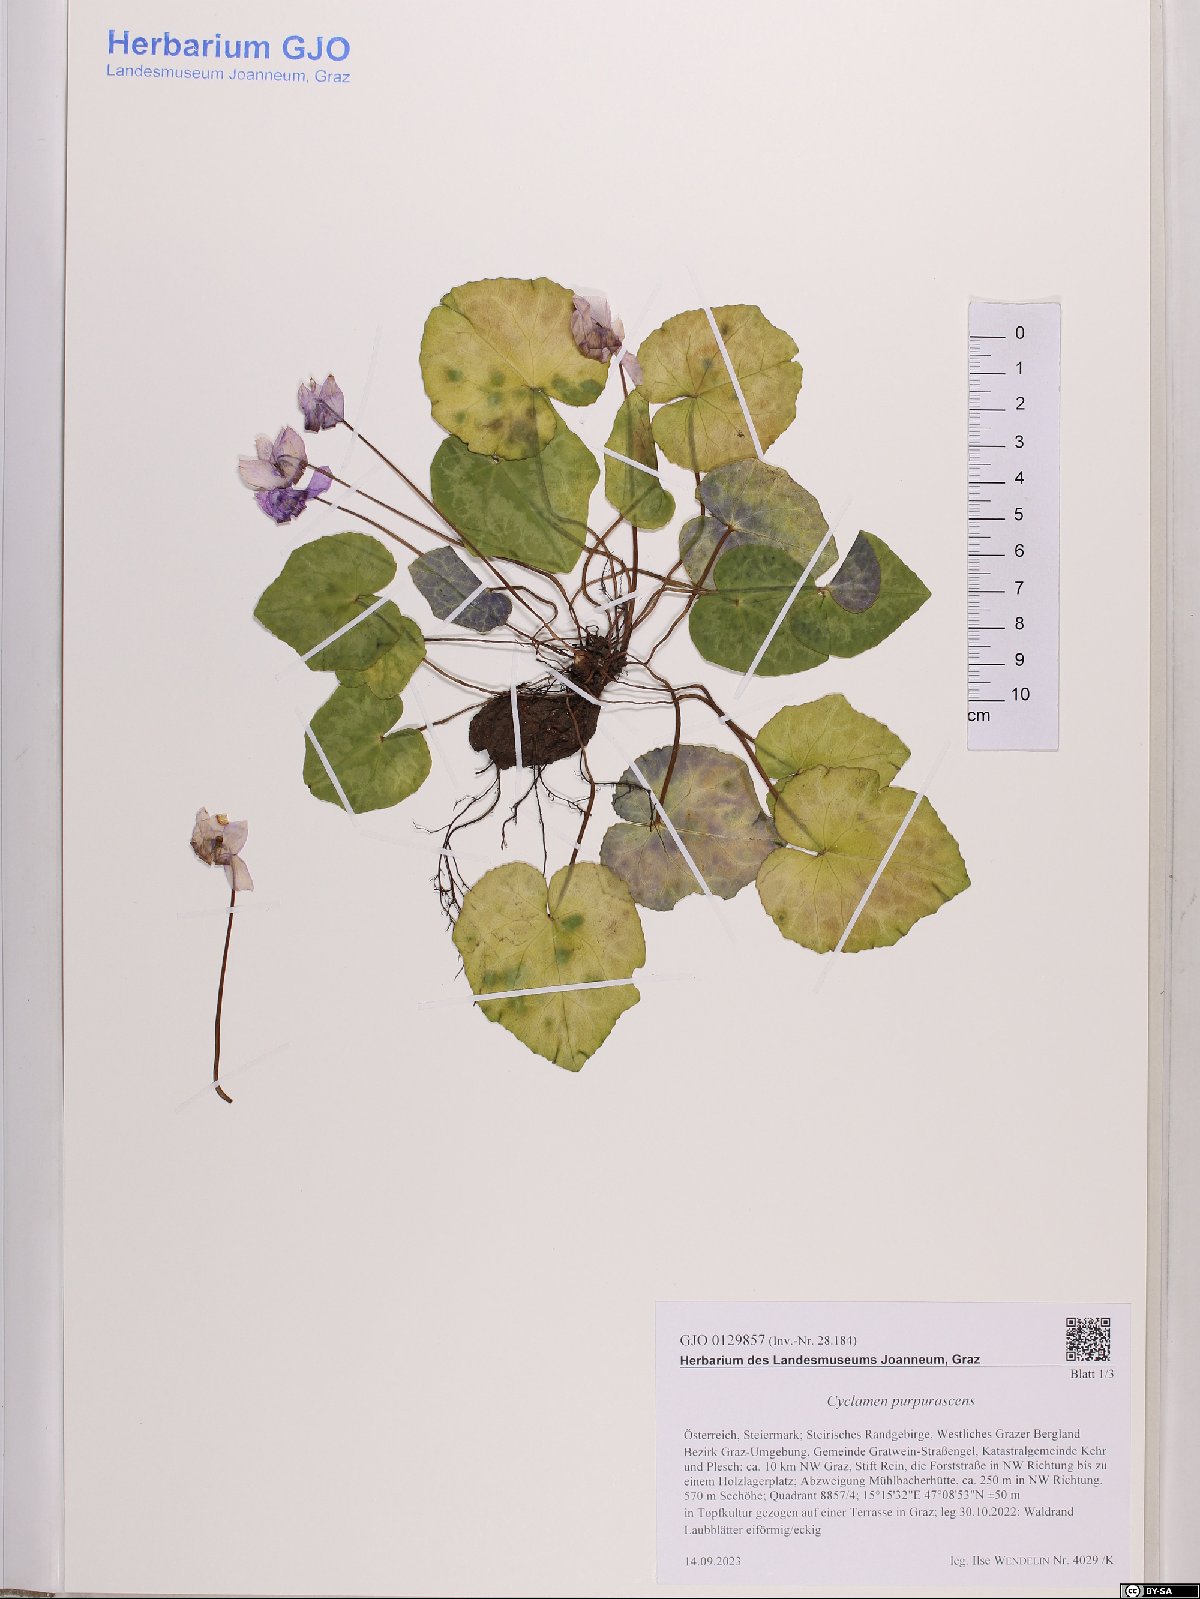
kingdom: Plantae
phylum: Tracheophyta
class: Magnoliopsida
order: Ericales
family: Primulaceae
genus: Cyclamen
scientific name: Cyclamen purpurascens
